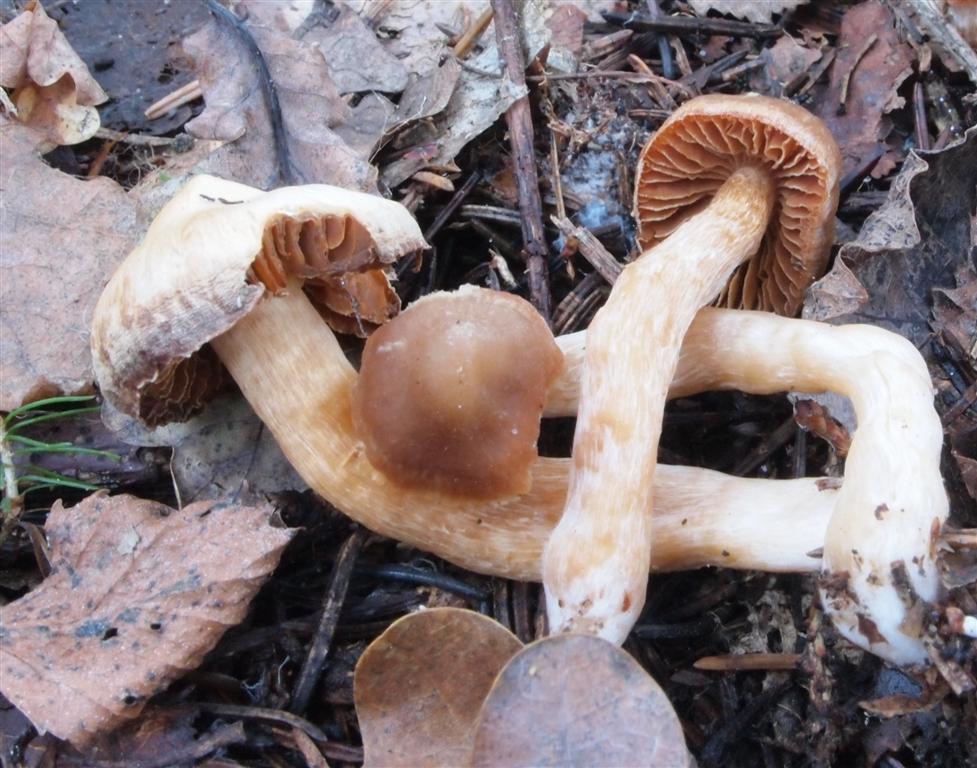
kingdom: Fungi
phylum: Basidiomycota
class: Agaricomycetes
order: Agaricales
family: Cortinariaceae
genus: Cortinarius
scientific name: Cortinarius
